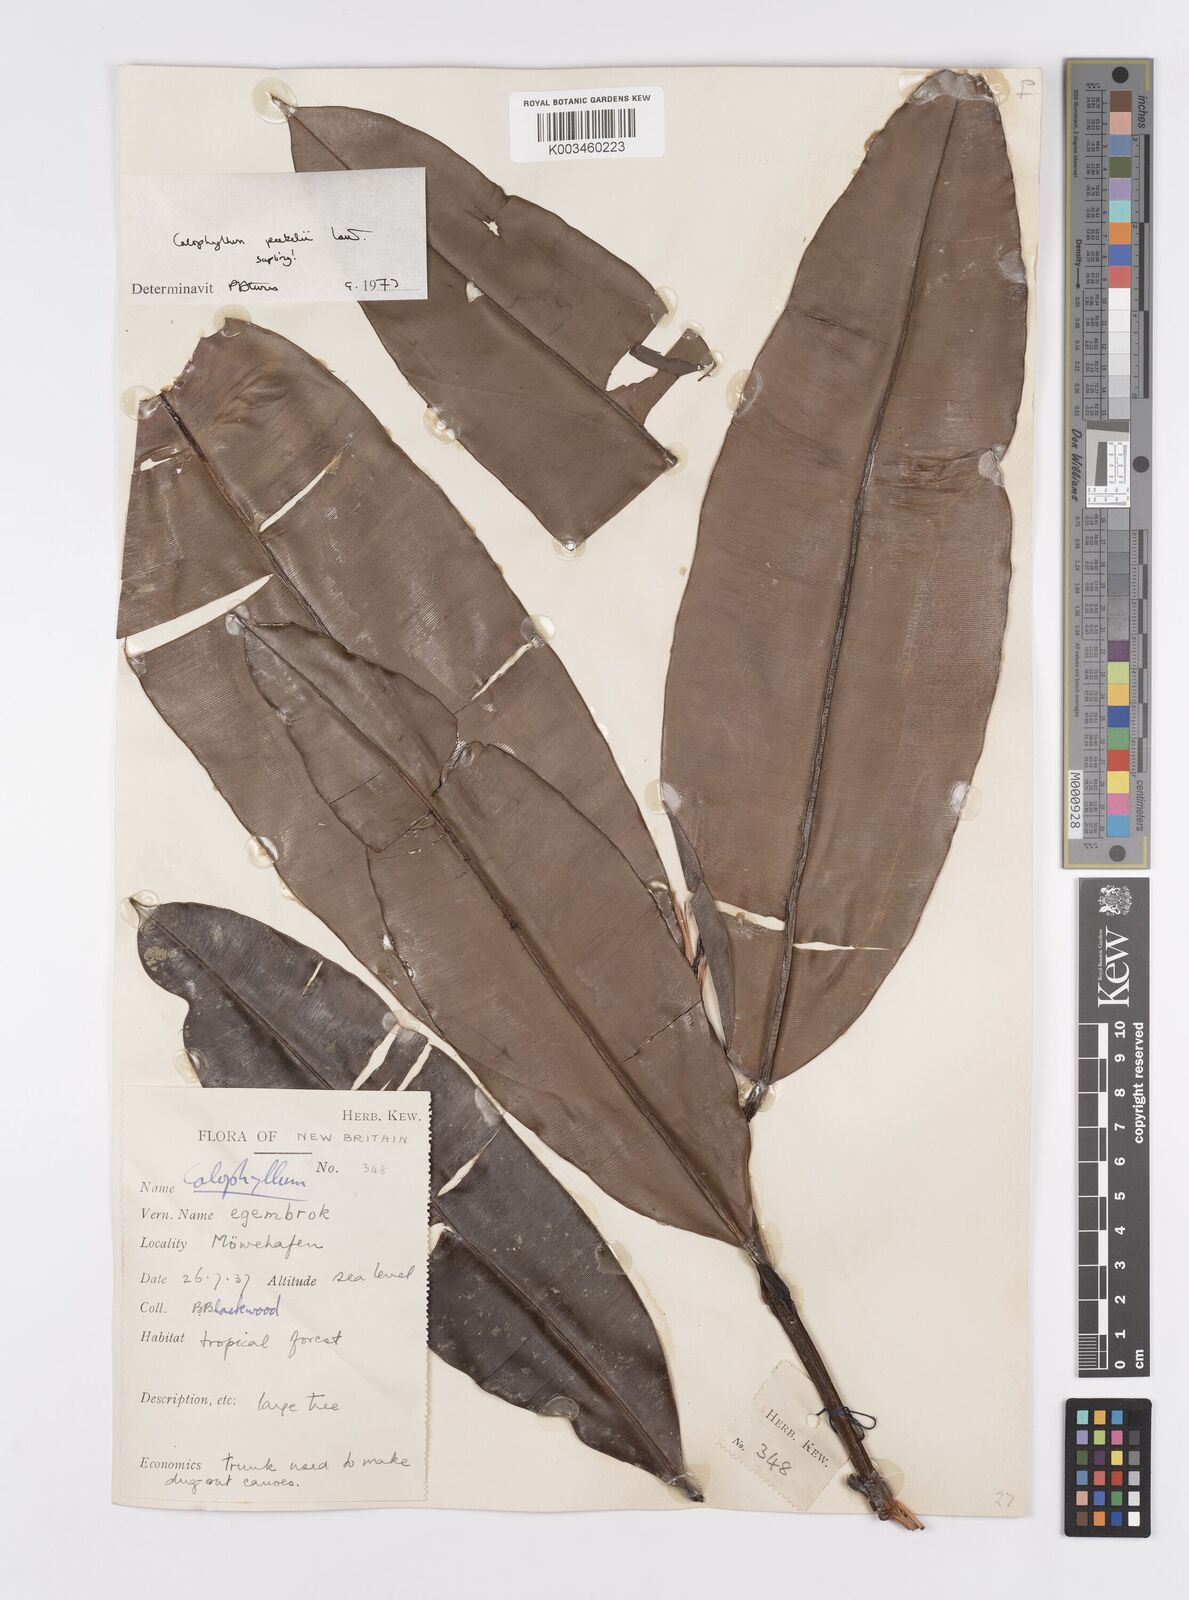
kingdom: Plantae
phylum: Tracheophyta
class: Magnoliopsida
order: Malpighiales
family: Calophyllaceae
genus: Calophyllum
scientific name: Calophyllum peekelii
